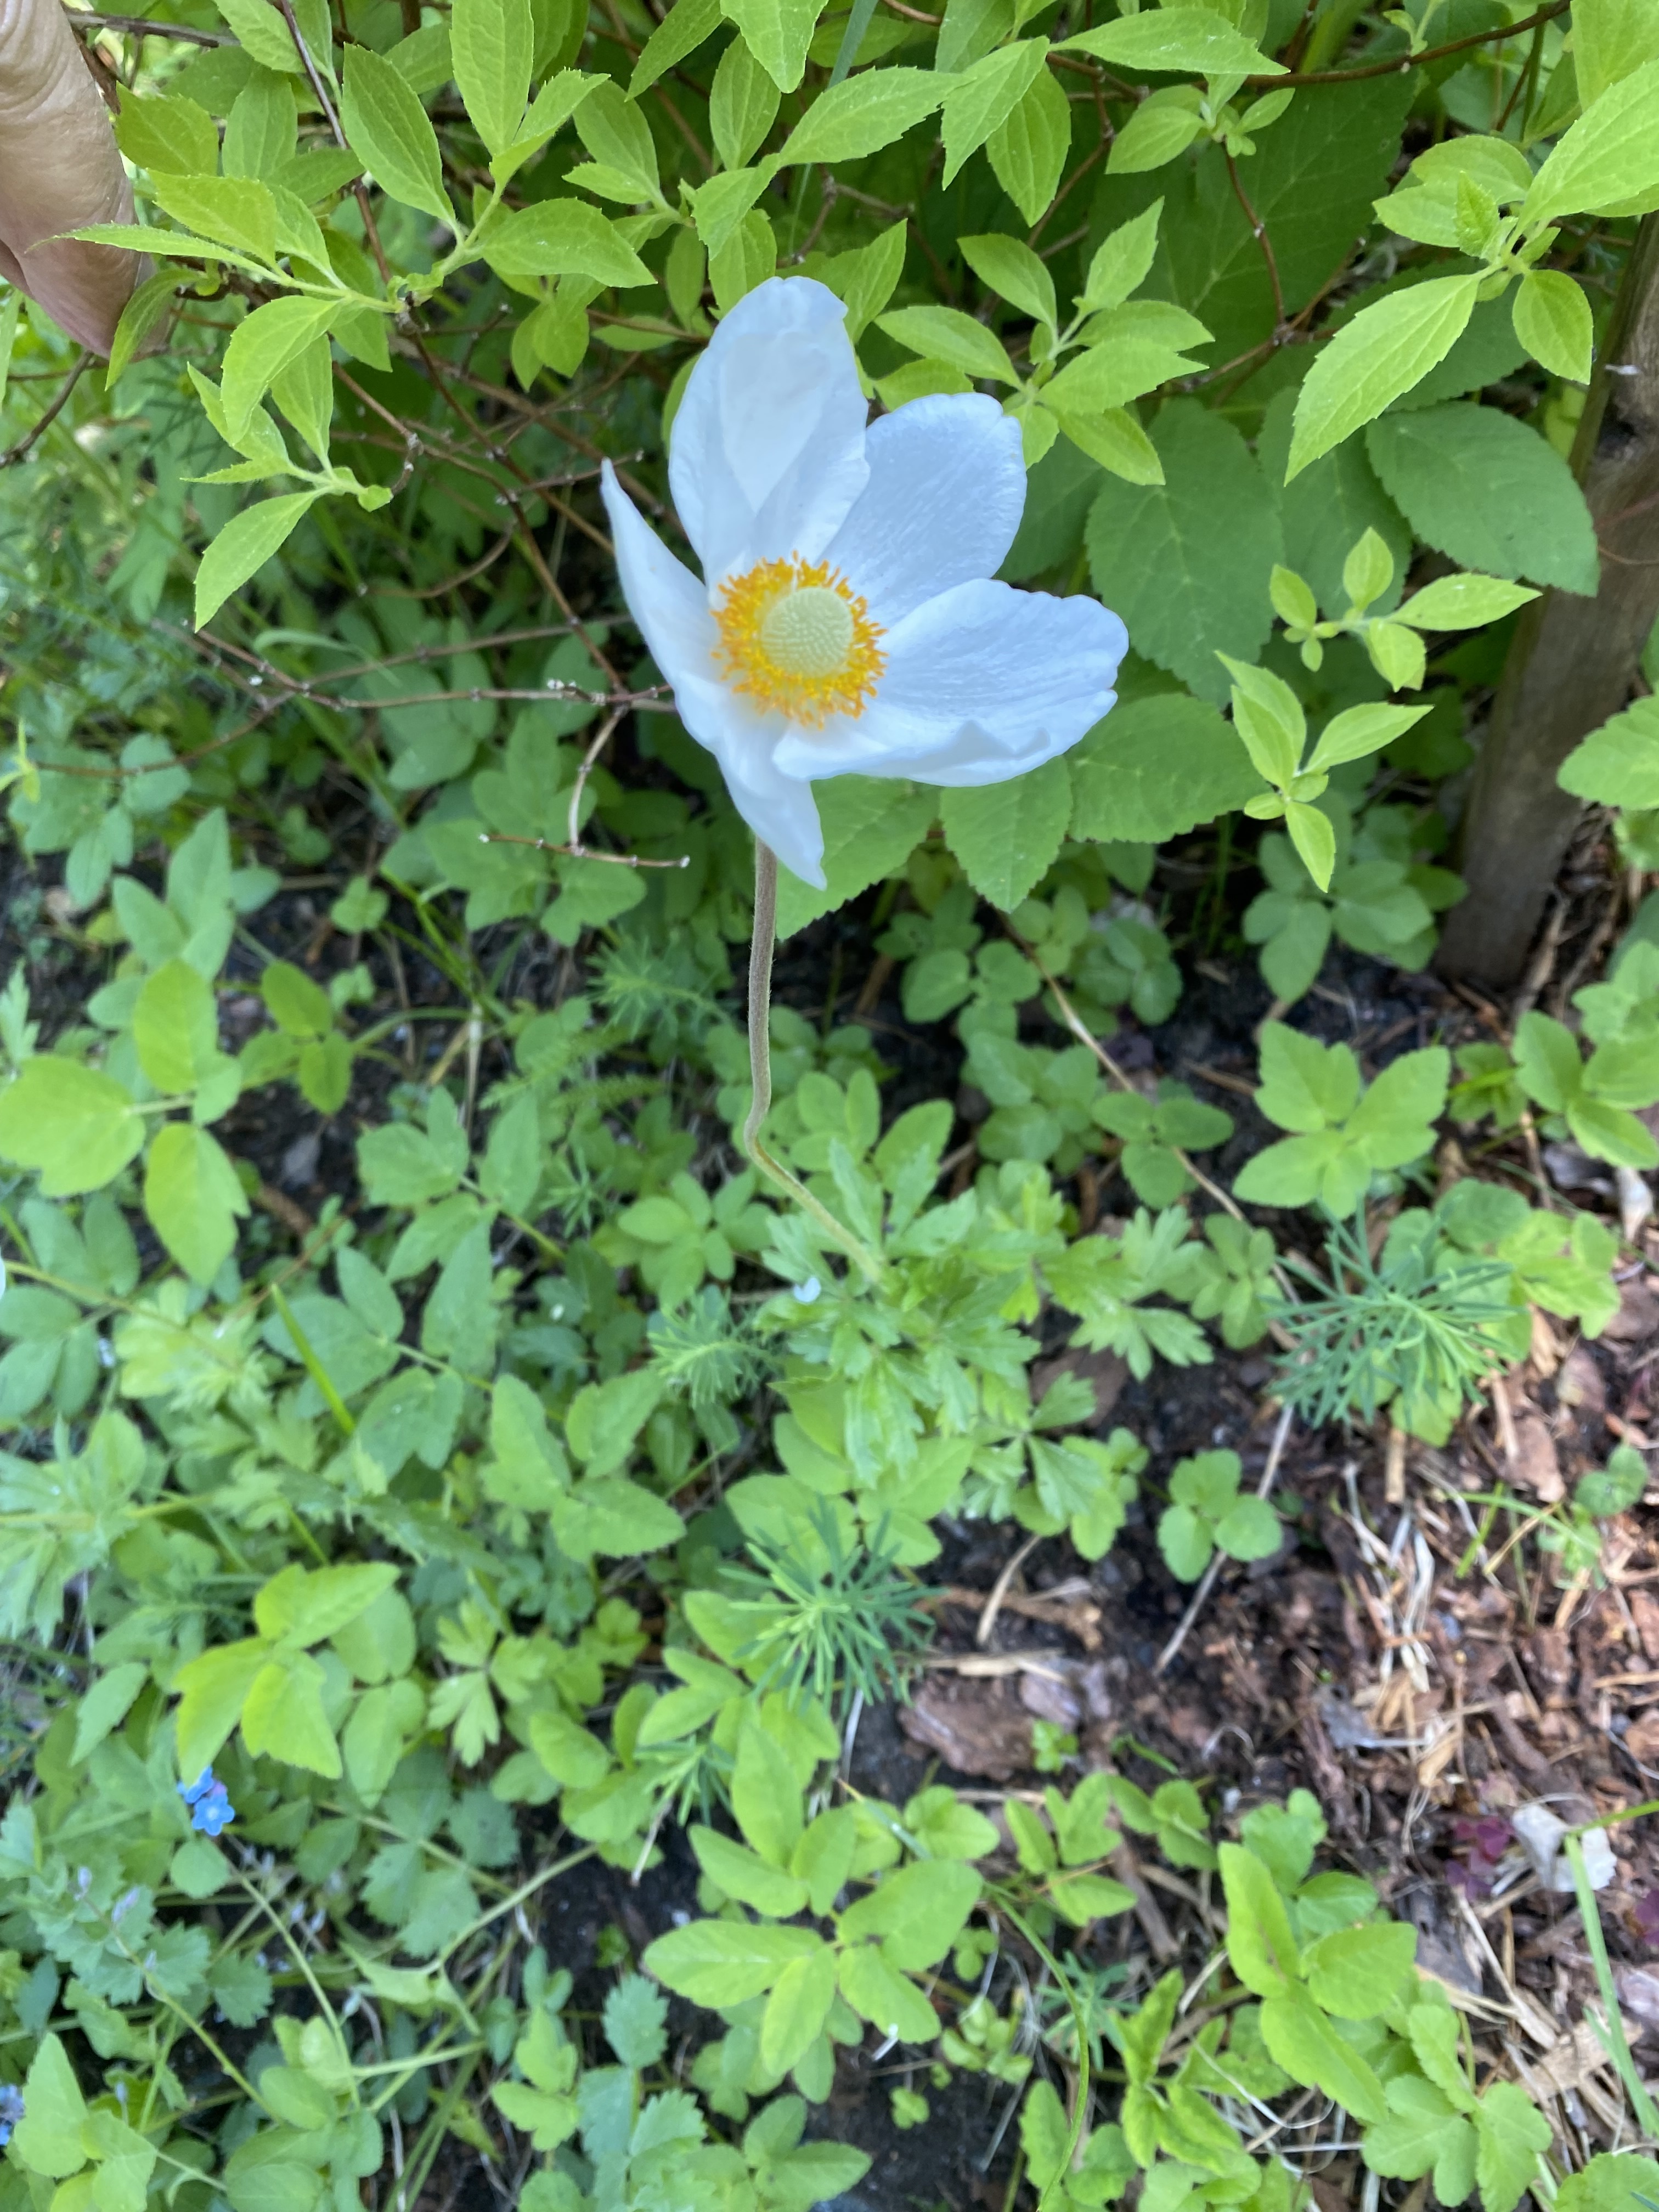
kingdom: Plantae
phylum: Tracheophyta
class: Magnoliopsida
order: Ranunculales
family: Ranunculaceae
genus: Anemone
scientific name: Anemone sylvestris
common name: Snowdrop anemone
